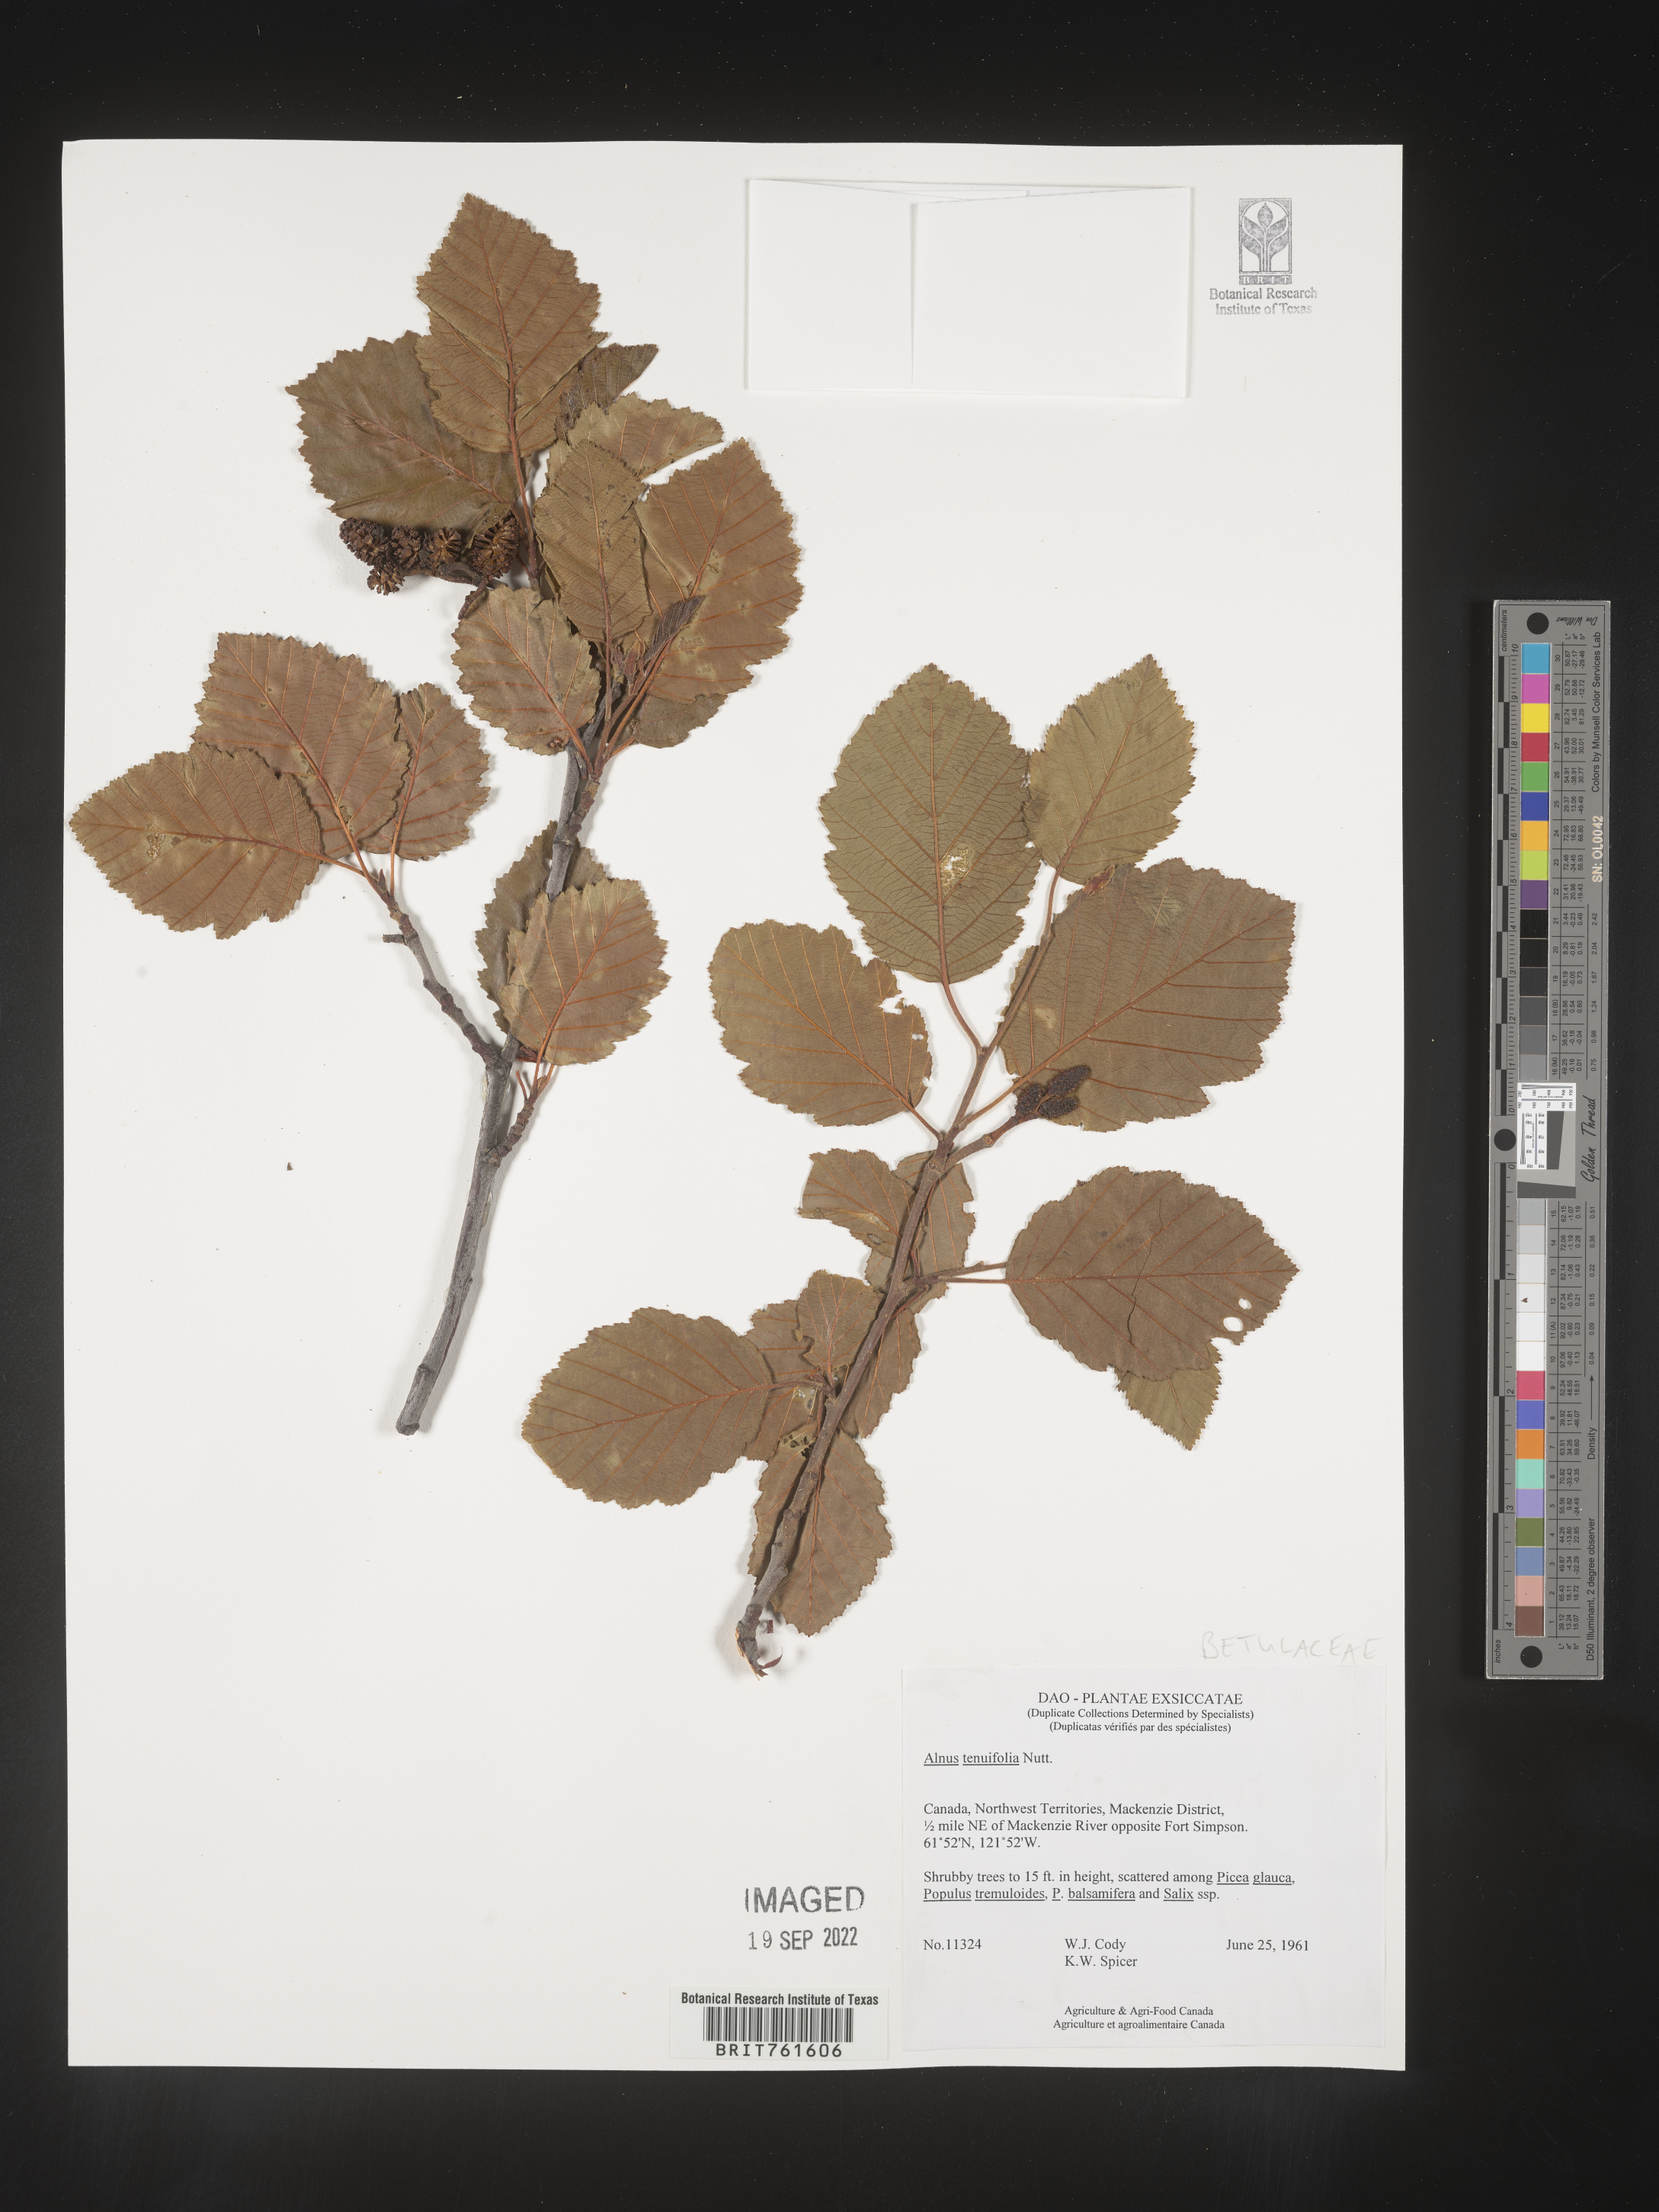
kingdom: Plantae
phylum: Tracheophyta
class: Magnoliopsida
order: Fagales
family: Betulaceae
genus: Alnus
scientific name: Alnus incana
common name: Grey alder
